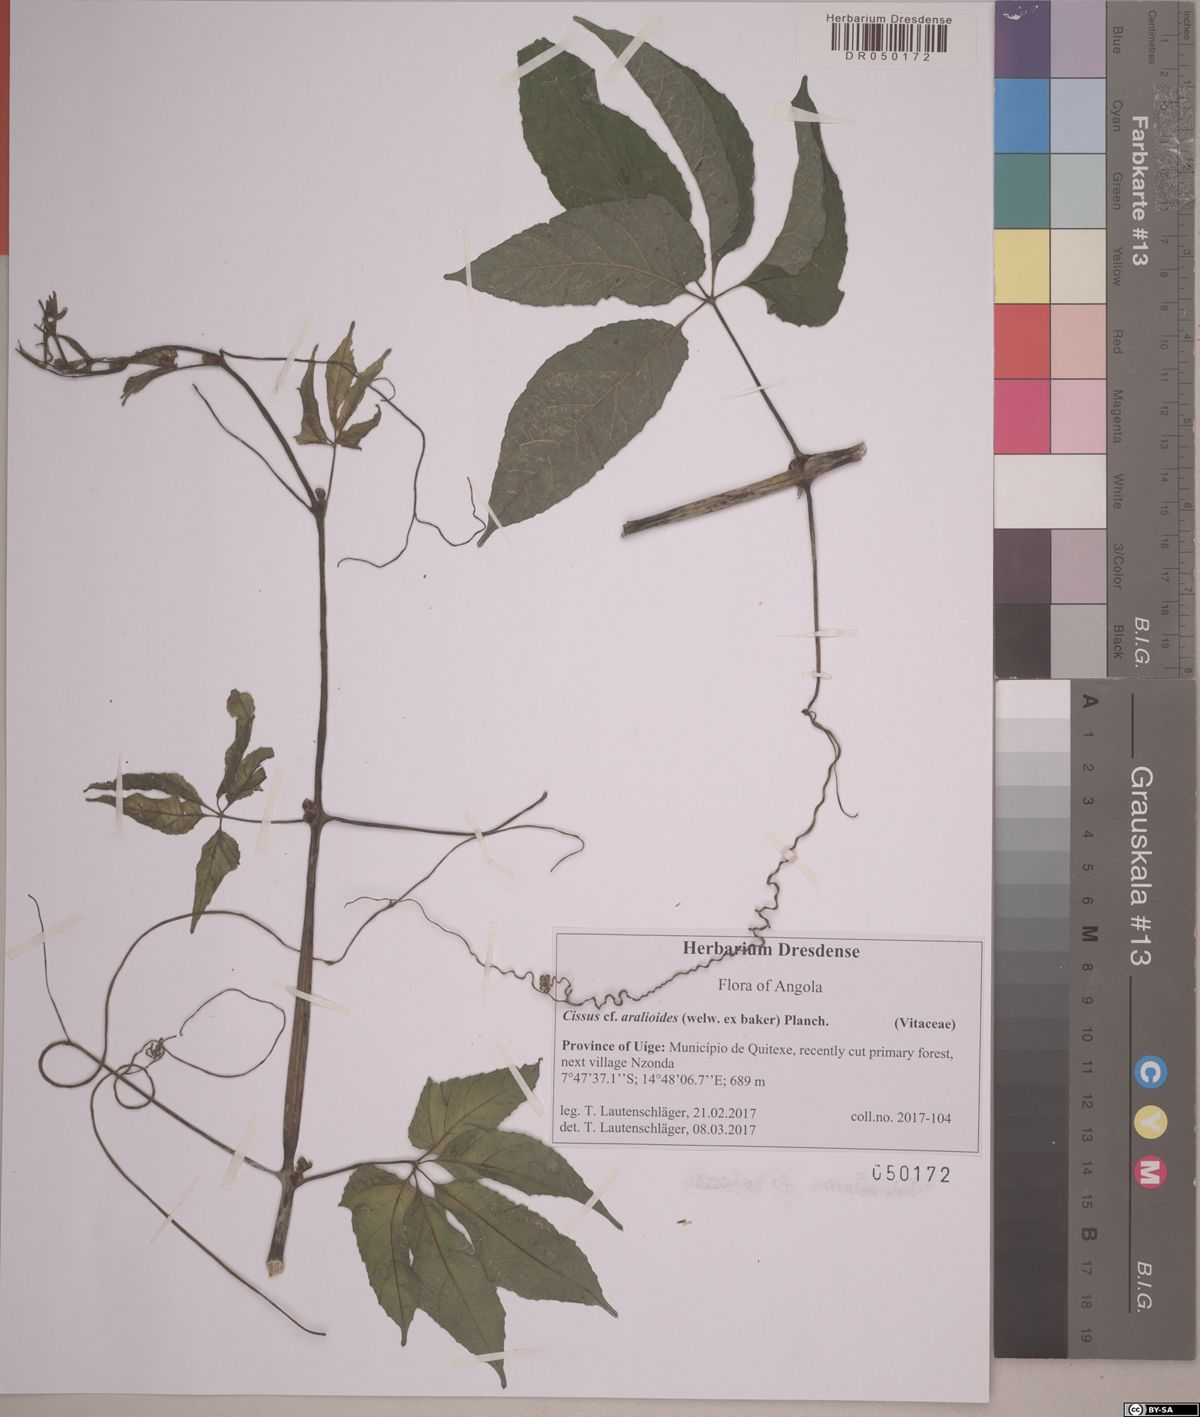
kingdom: Plantae
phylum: Tracheophyta
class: Magnoliopsida
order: Vitales
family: Vitaceae
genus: Cissus
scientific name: Cissus aralioides
